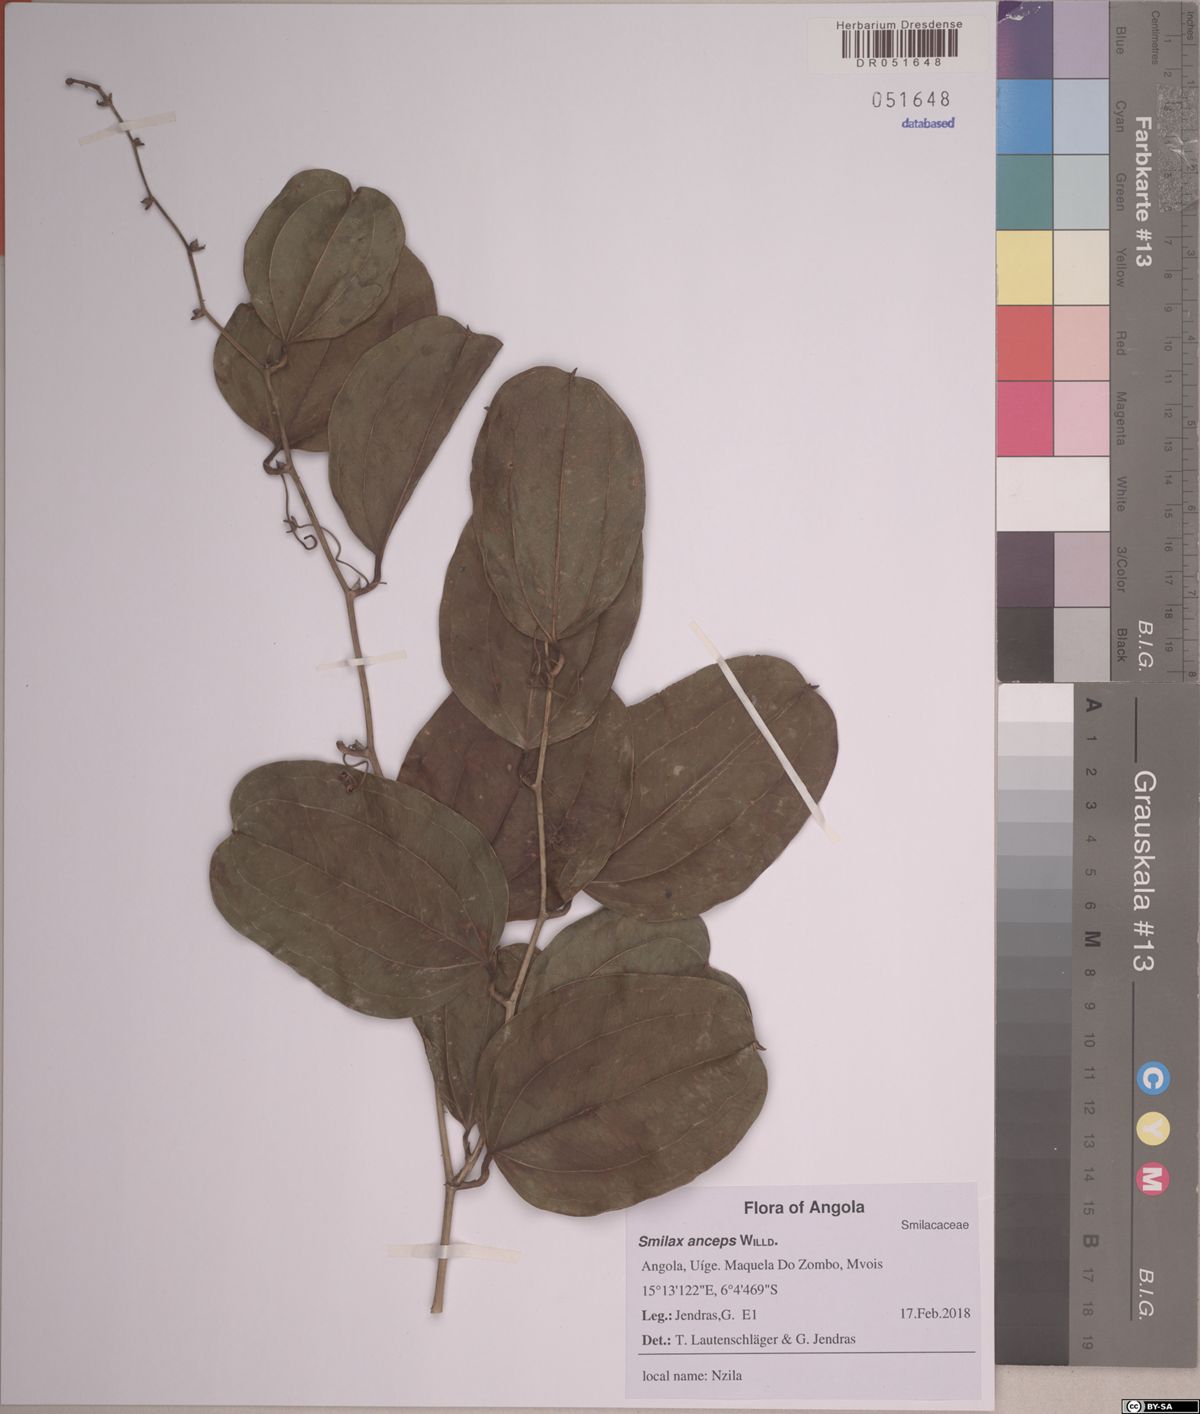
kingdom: Plantae
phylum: Tracheophyta
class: Liliopsida
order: Liliales
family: Smilacaceae
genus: Smilax
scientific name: Smilax anceps
